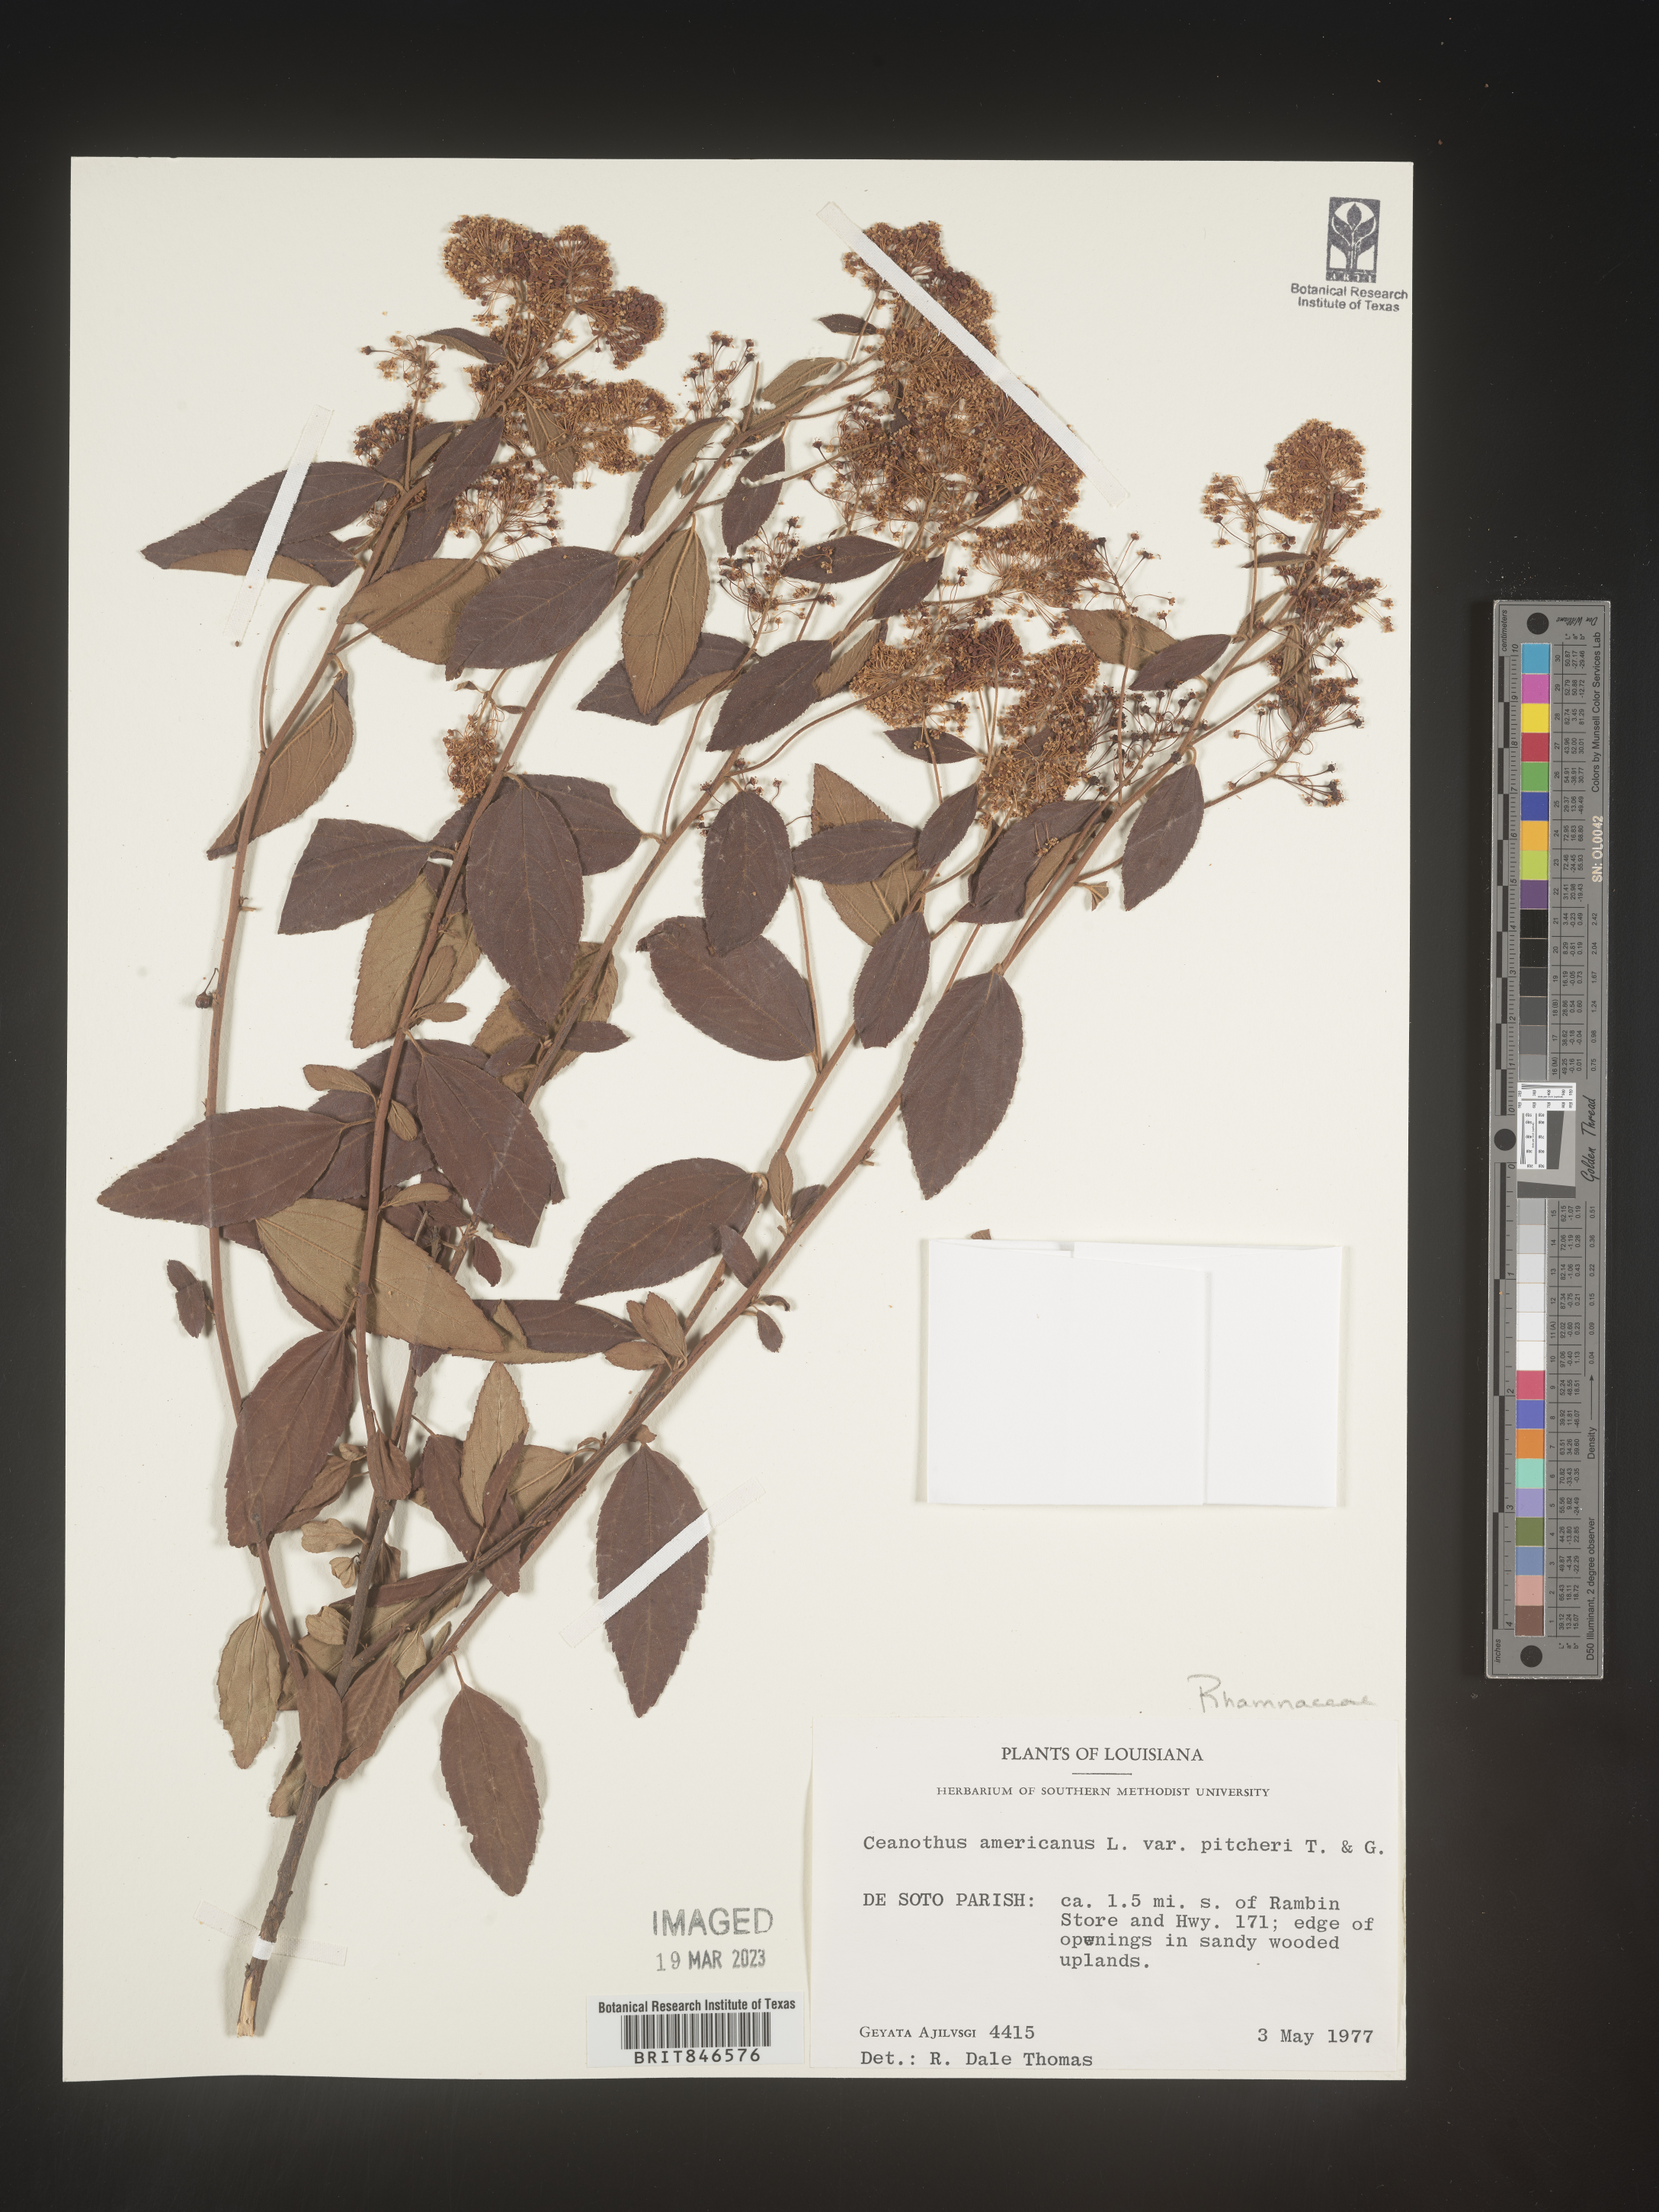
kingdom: Plantae
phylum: Tracheophyta
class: Magnoliopsida
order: Rosales
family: Rhamnaceae
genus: Ceanothus
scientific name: Ceanothus americanus
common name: Redroot
